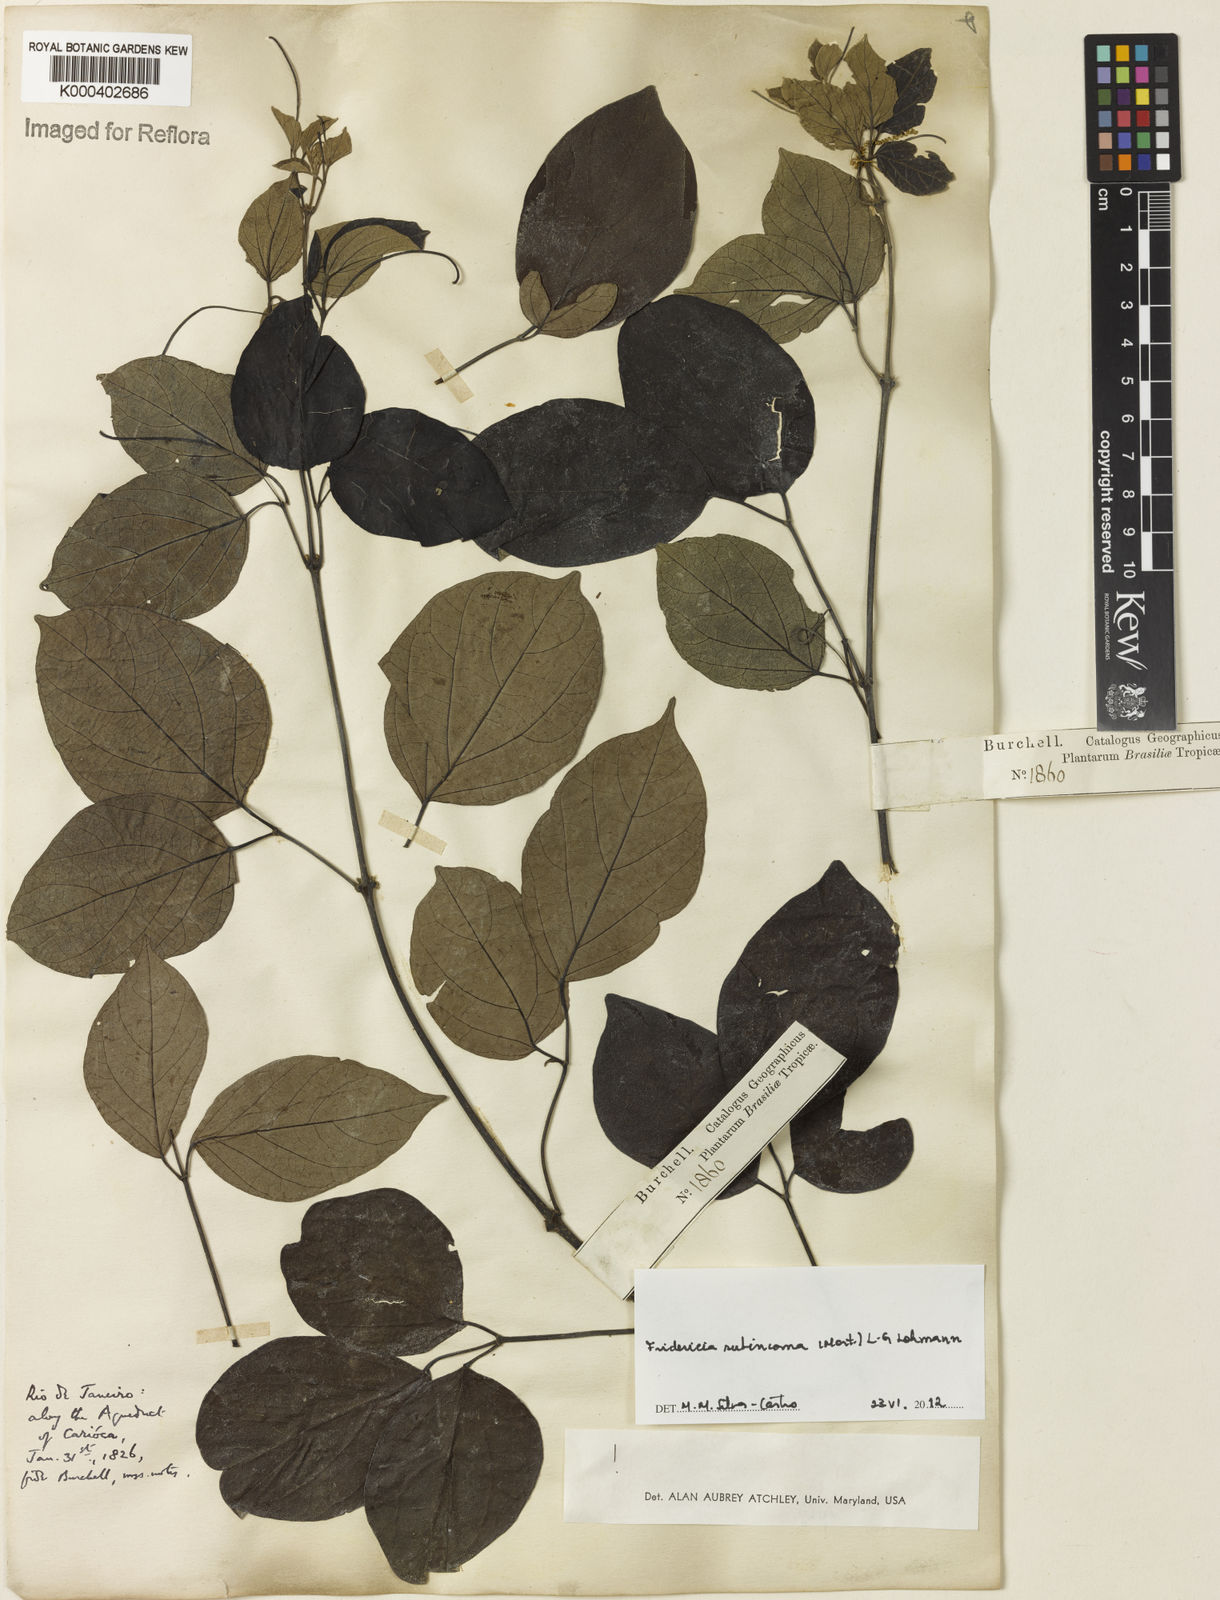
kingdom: Plantae
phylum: Tracheophyta
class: Magnoliopsida
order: Lamiales
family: Bignoniaceae
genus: Fridericia
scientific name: Fridericia subincana
